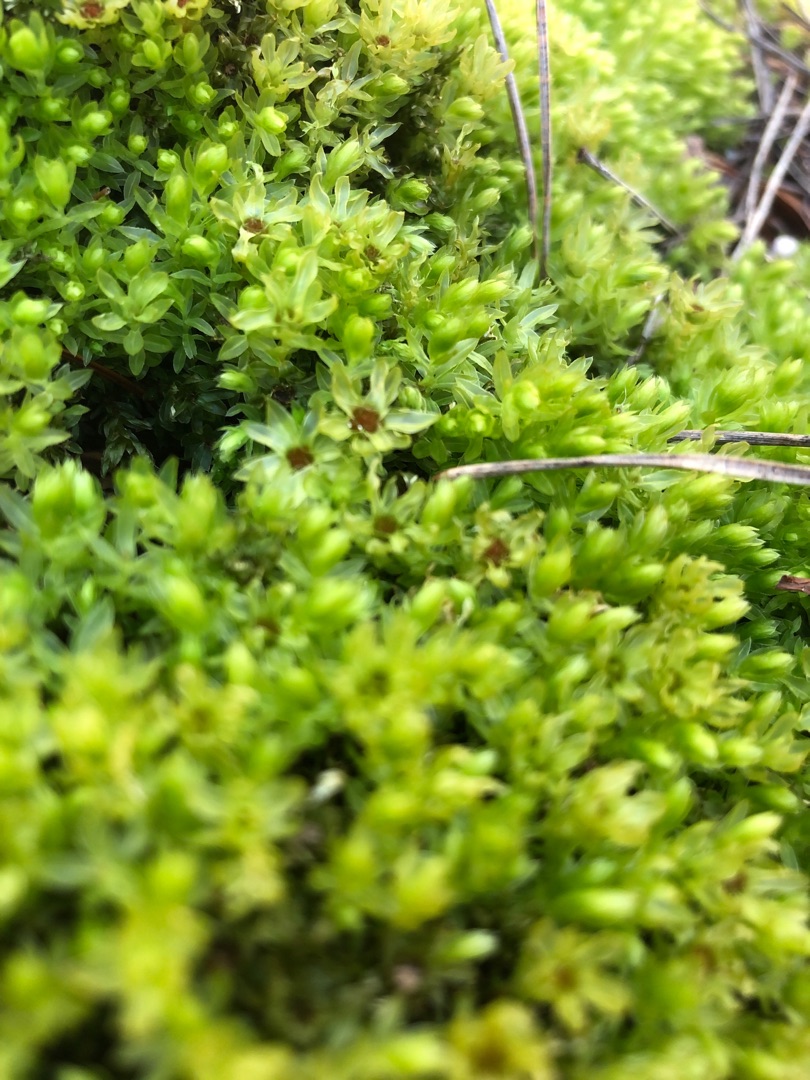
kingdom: Plantae
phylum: Bryophyta
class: Bryopsida
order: Bryales
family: Mniaceae
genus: Mnium
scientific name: Mnium hornum
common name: Brunfiltet stjernemos
